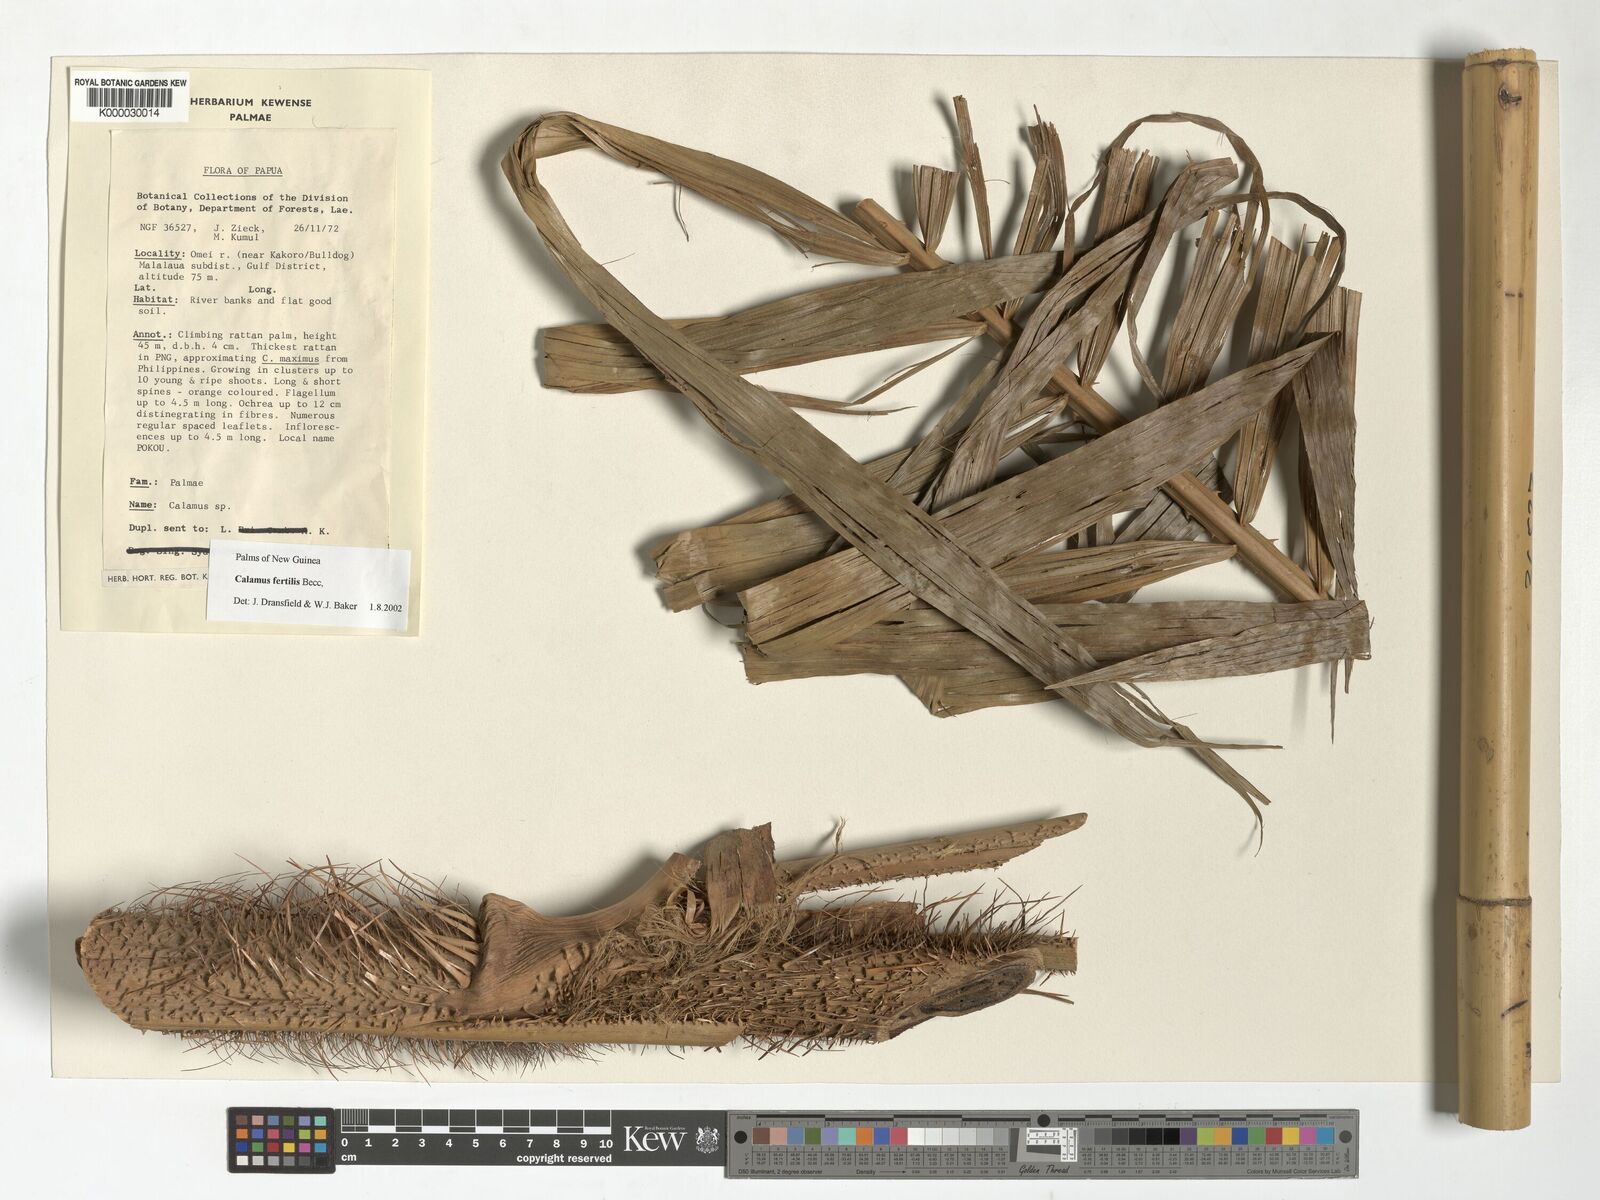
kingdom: Plantae
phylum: Tracheophyta
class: Liliopsida
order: Arecales
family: Arecaceae
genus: Calamus
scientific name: Calamus fertilis
